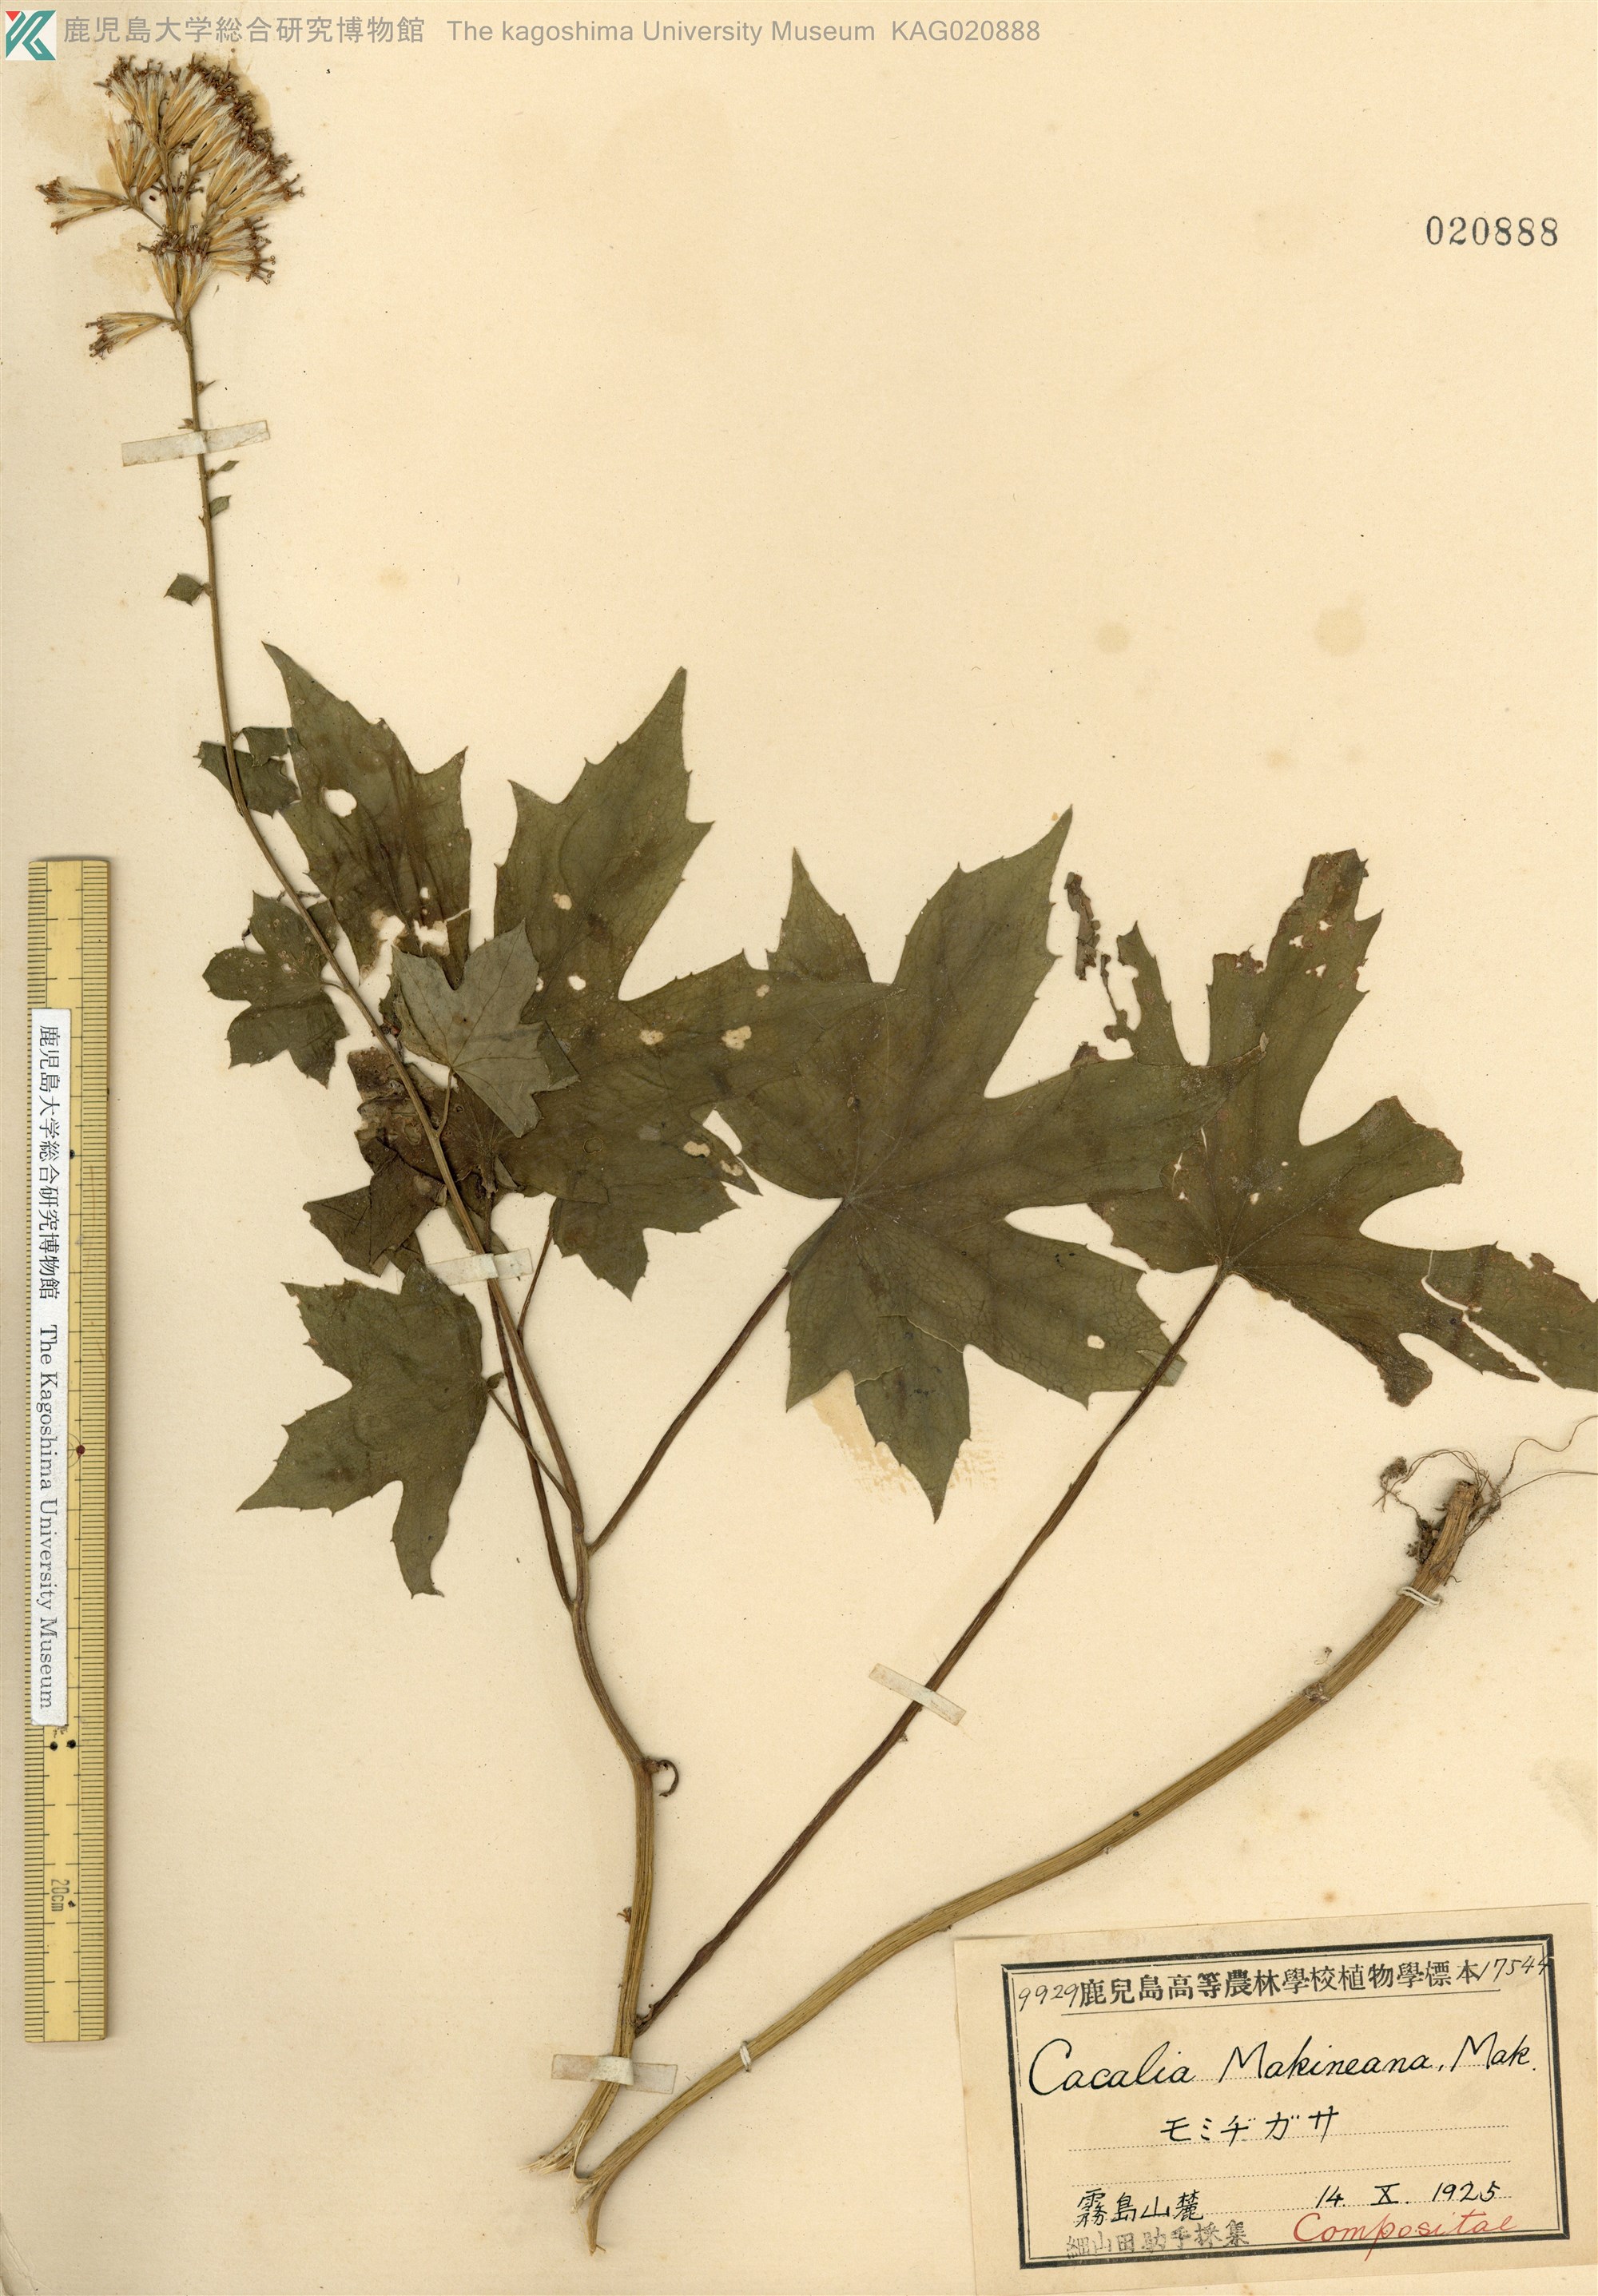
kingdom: Plantae
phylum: Tracheophyta
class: Magnoliopsida
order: Asterales
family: Asteraceae
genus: Japonicalia
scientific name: Japonicalia delphiniifolia
